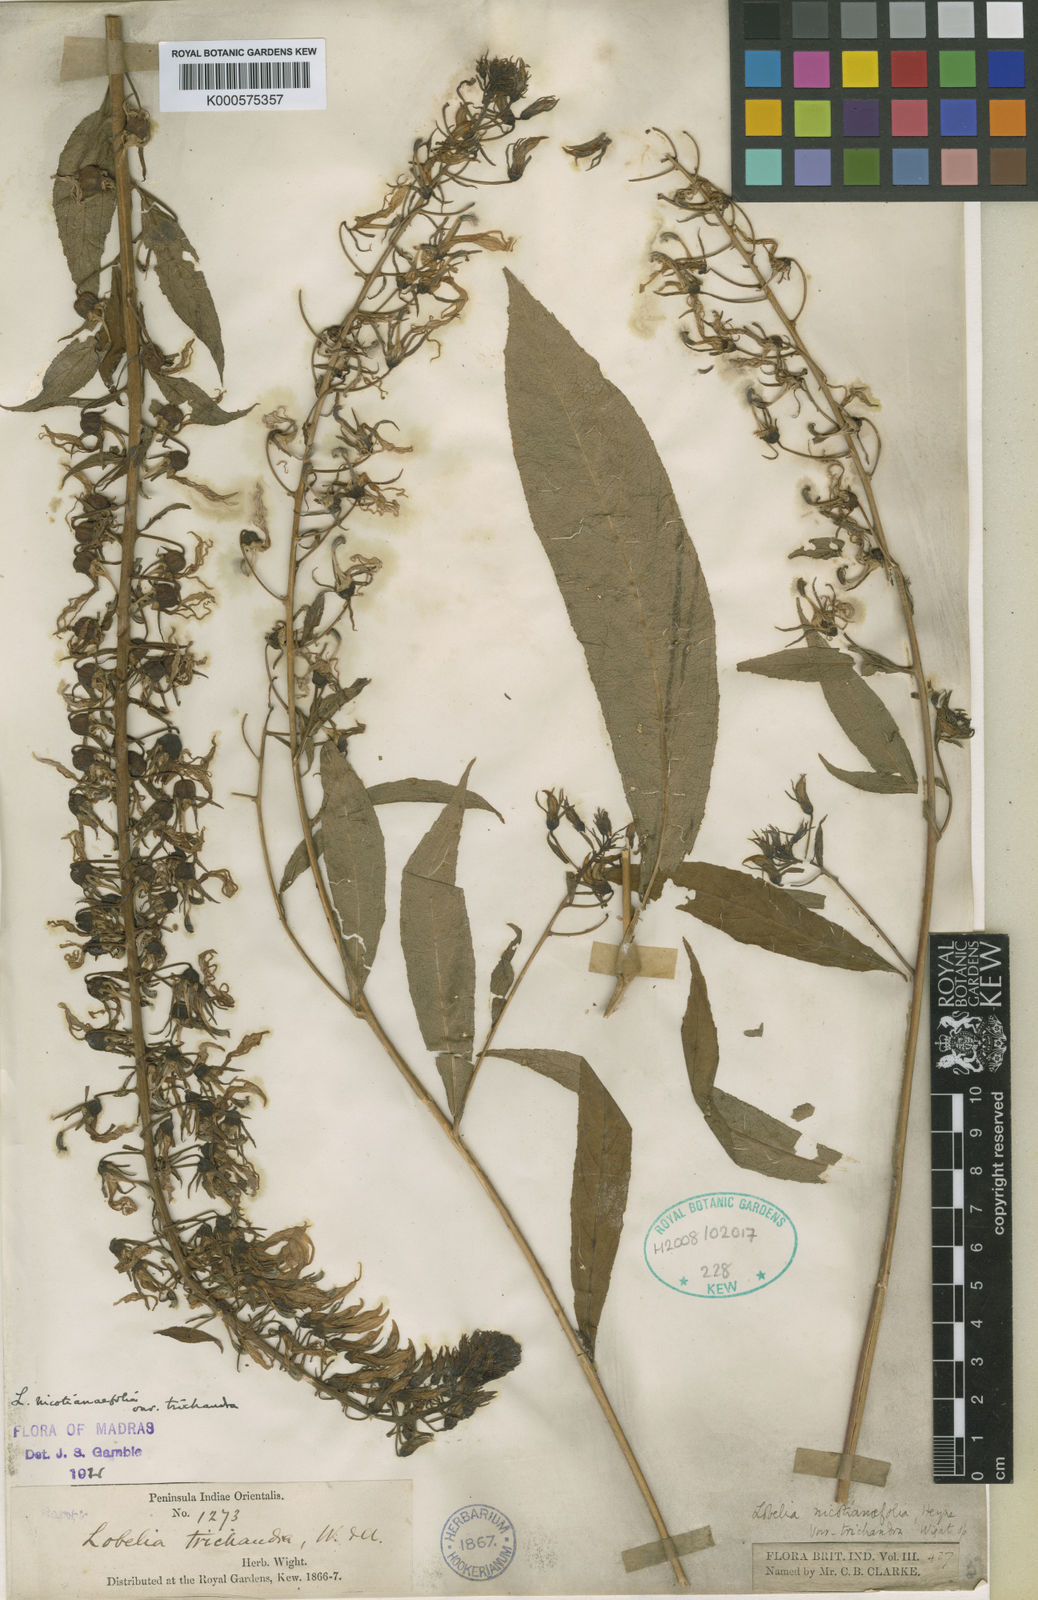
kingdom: Plantae
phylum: Tracheophyta
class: Magnoliopsida
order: Asterales
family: Campanulaceae
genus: Lobelia
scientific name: Lobelia
